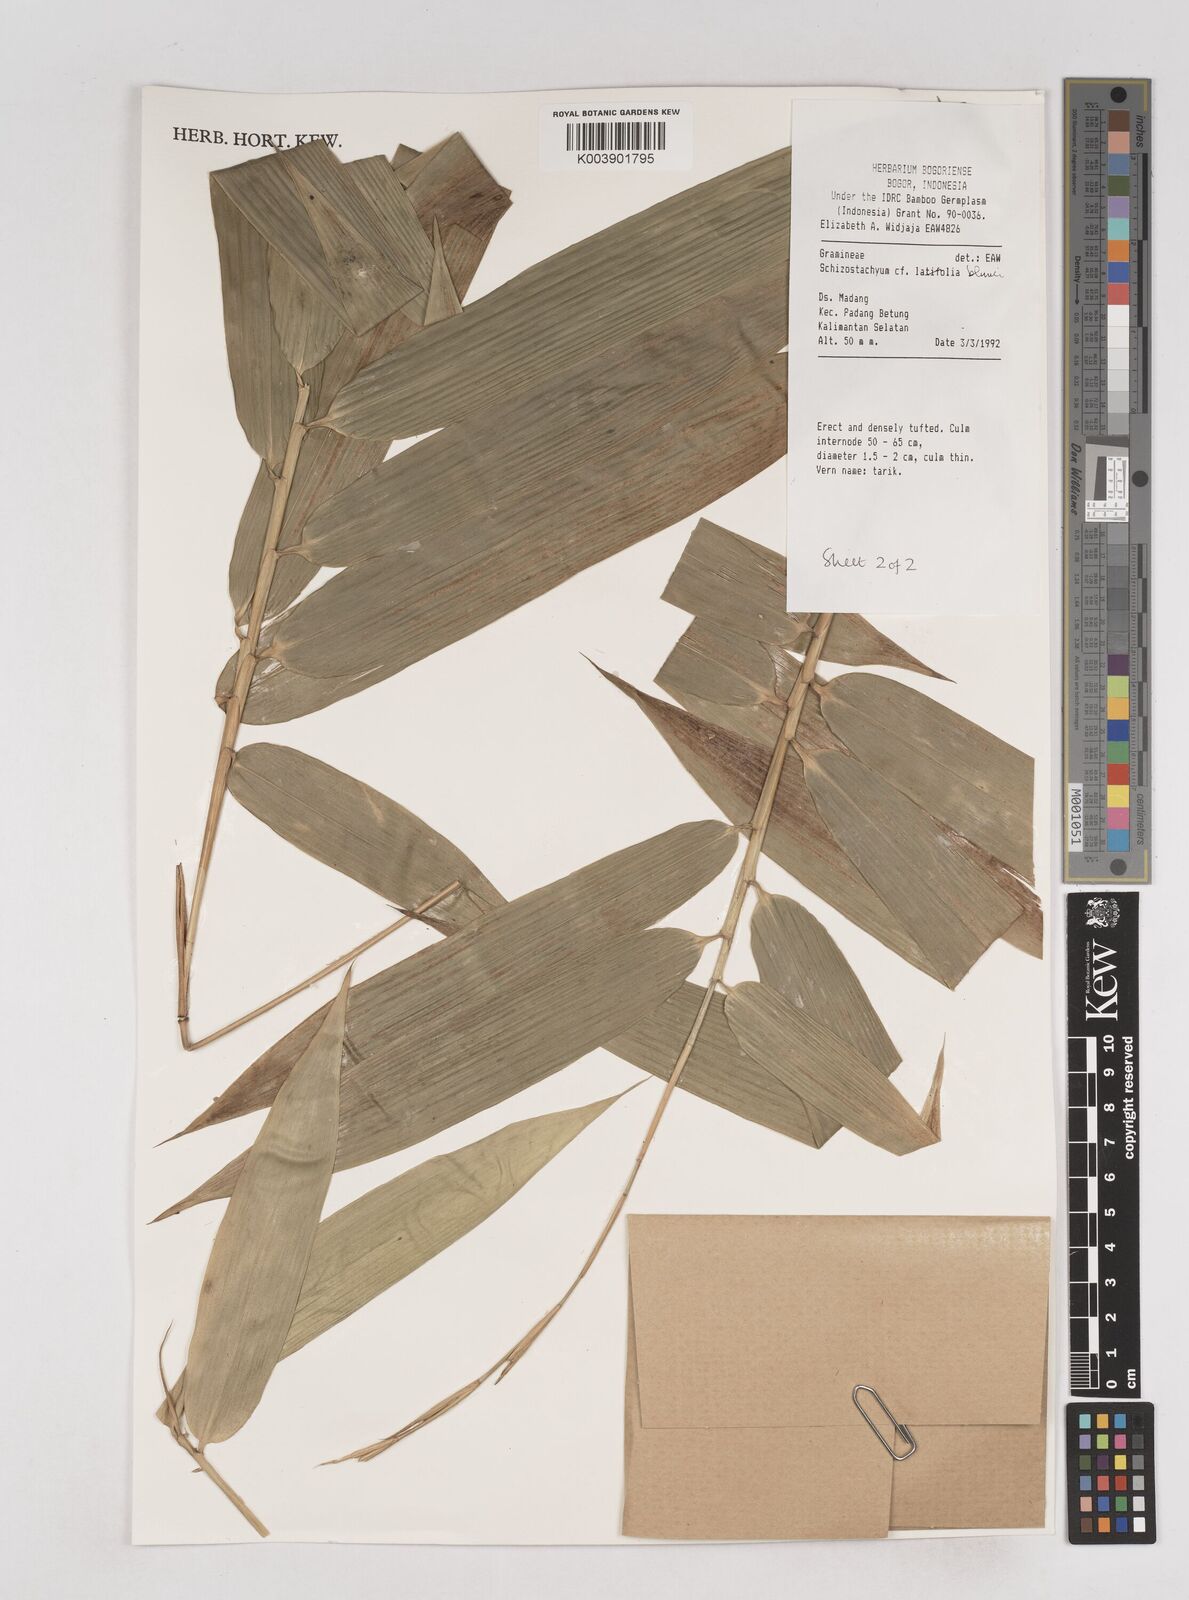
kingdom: Plantae
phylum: Tracheophyta
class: Liliopsida
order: Poales
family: Poaceae
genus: Schizostachyum
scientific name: Schizostachyum blumei
